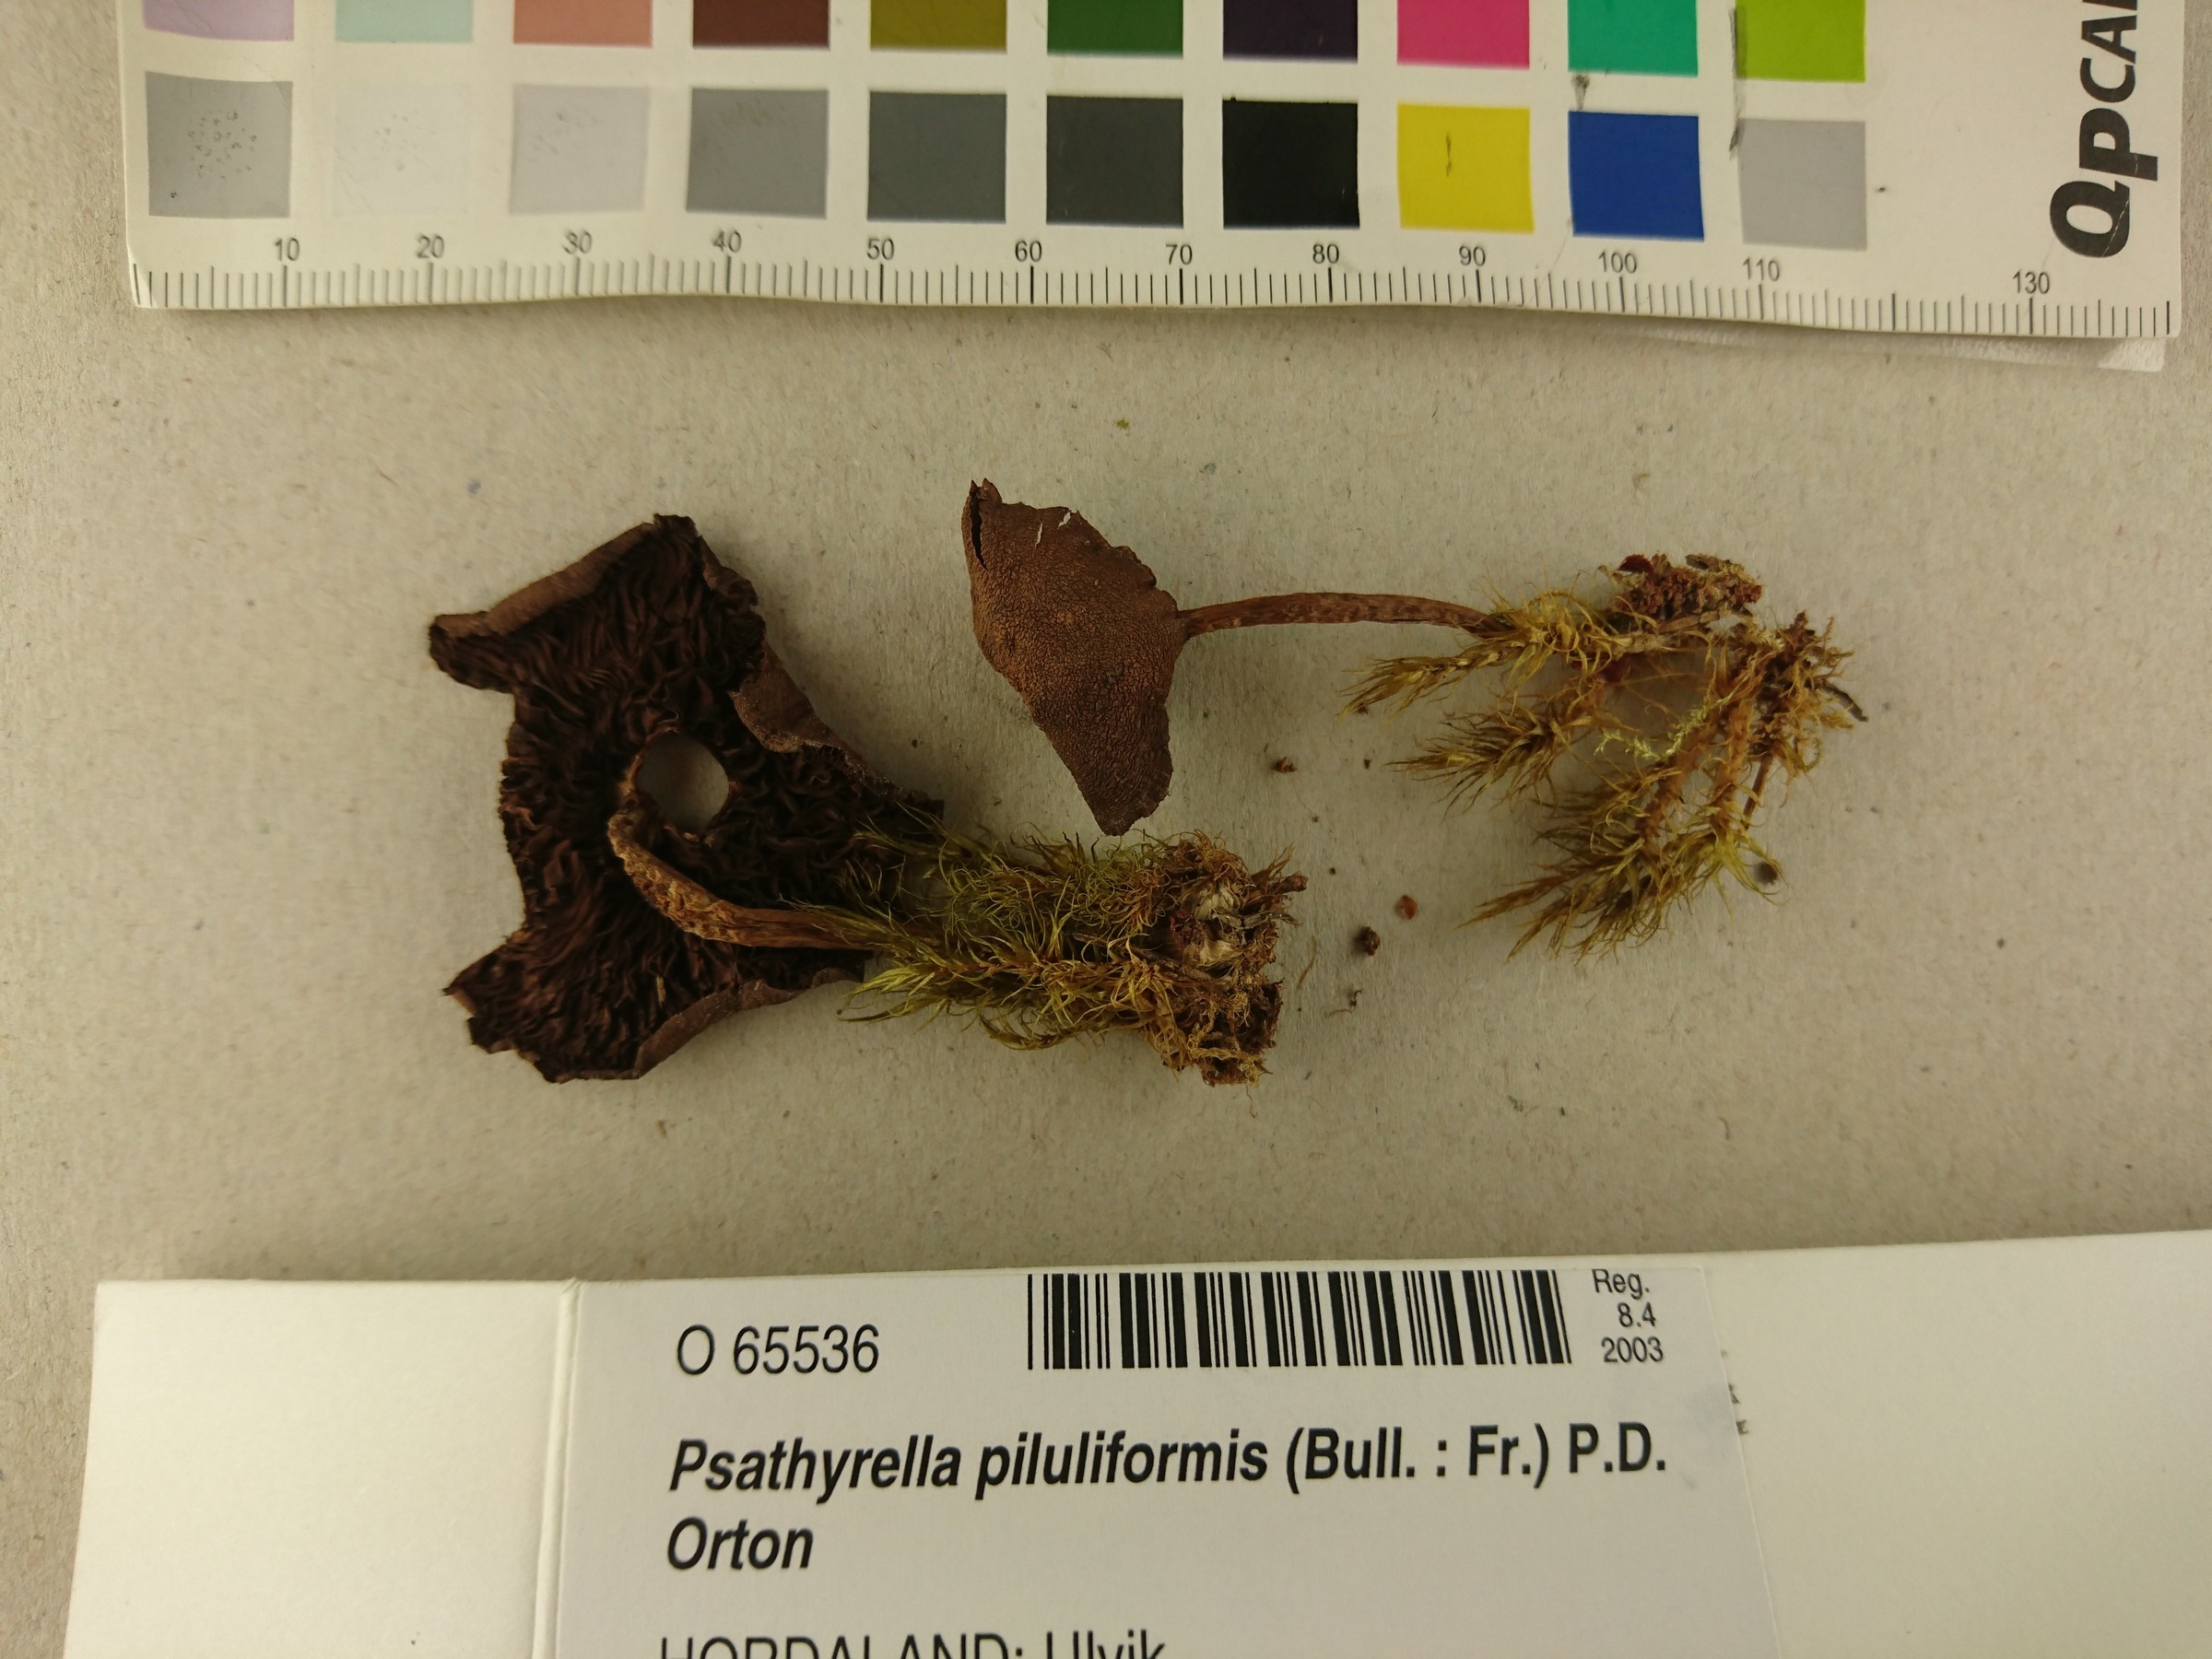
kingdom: Fungi
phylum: Basidiomycota
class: Agaricomycetes
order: Agaricales
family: Psathyrellaceae
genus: Psathyrella
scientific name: Psathyrella piluliformis
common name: Common stump brittlestem
